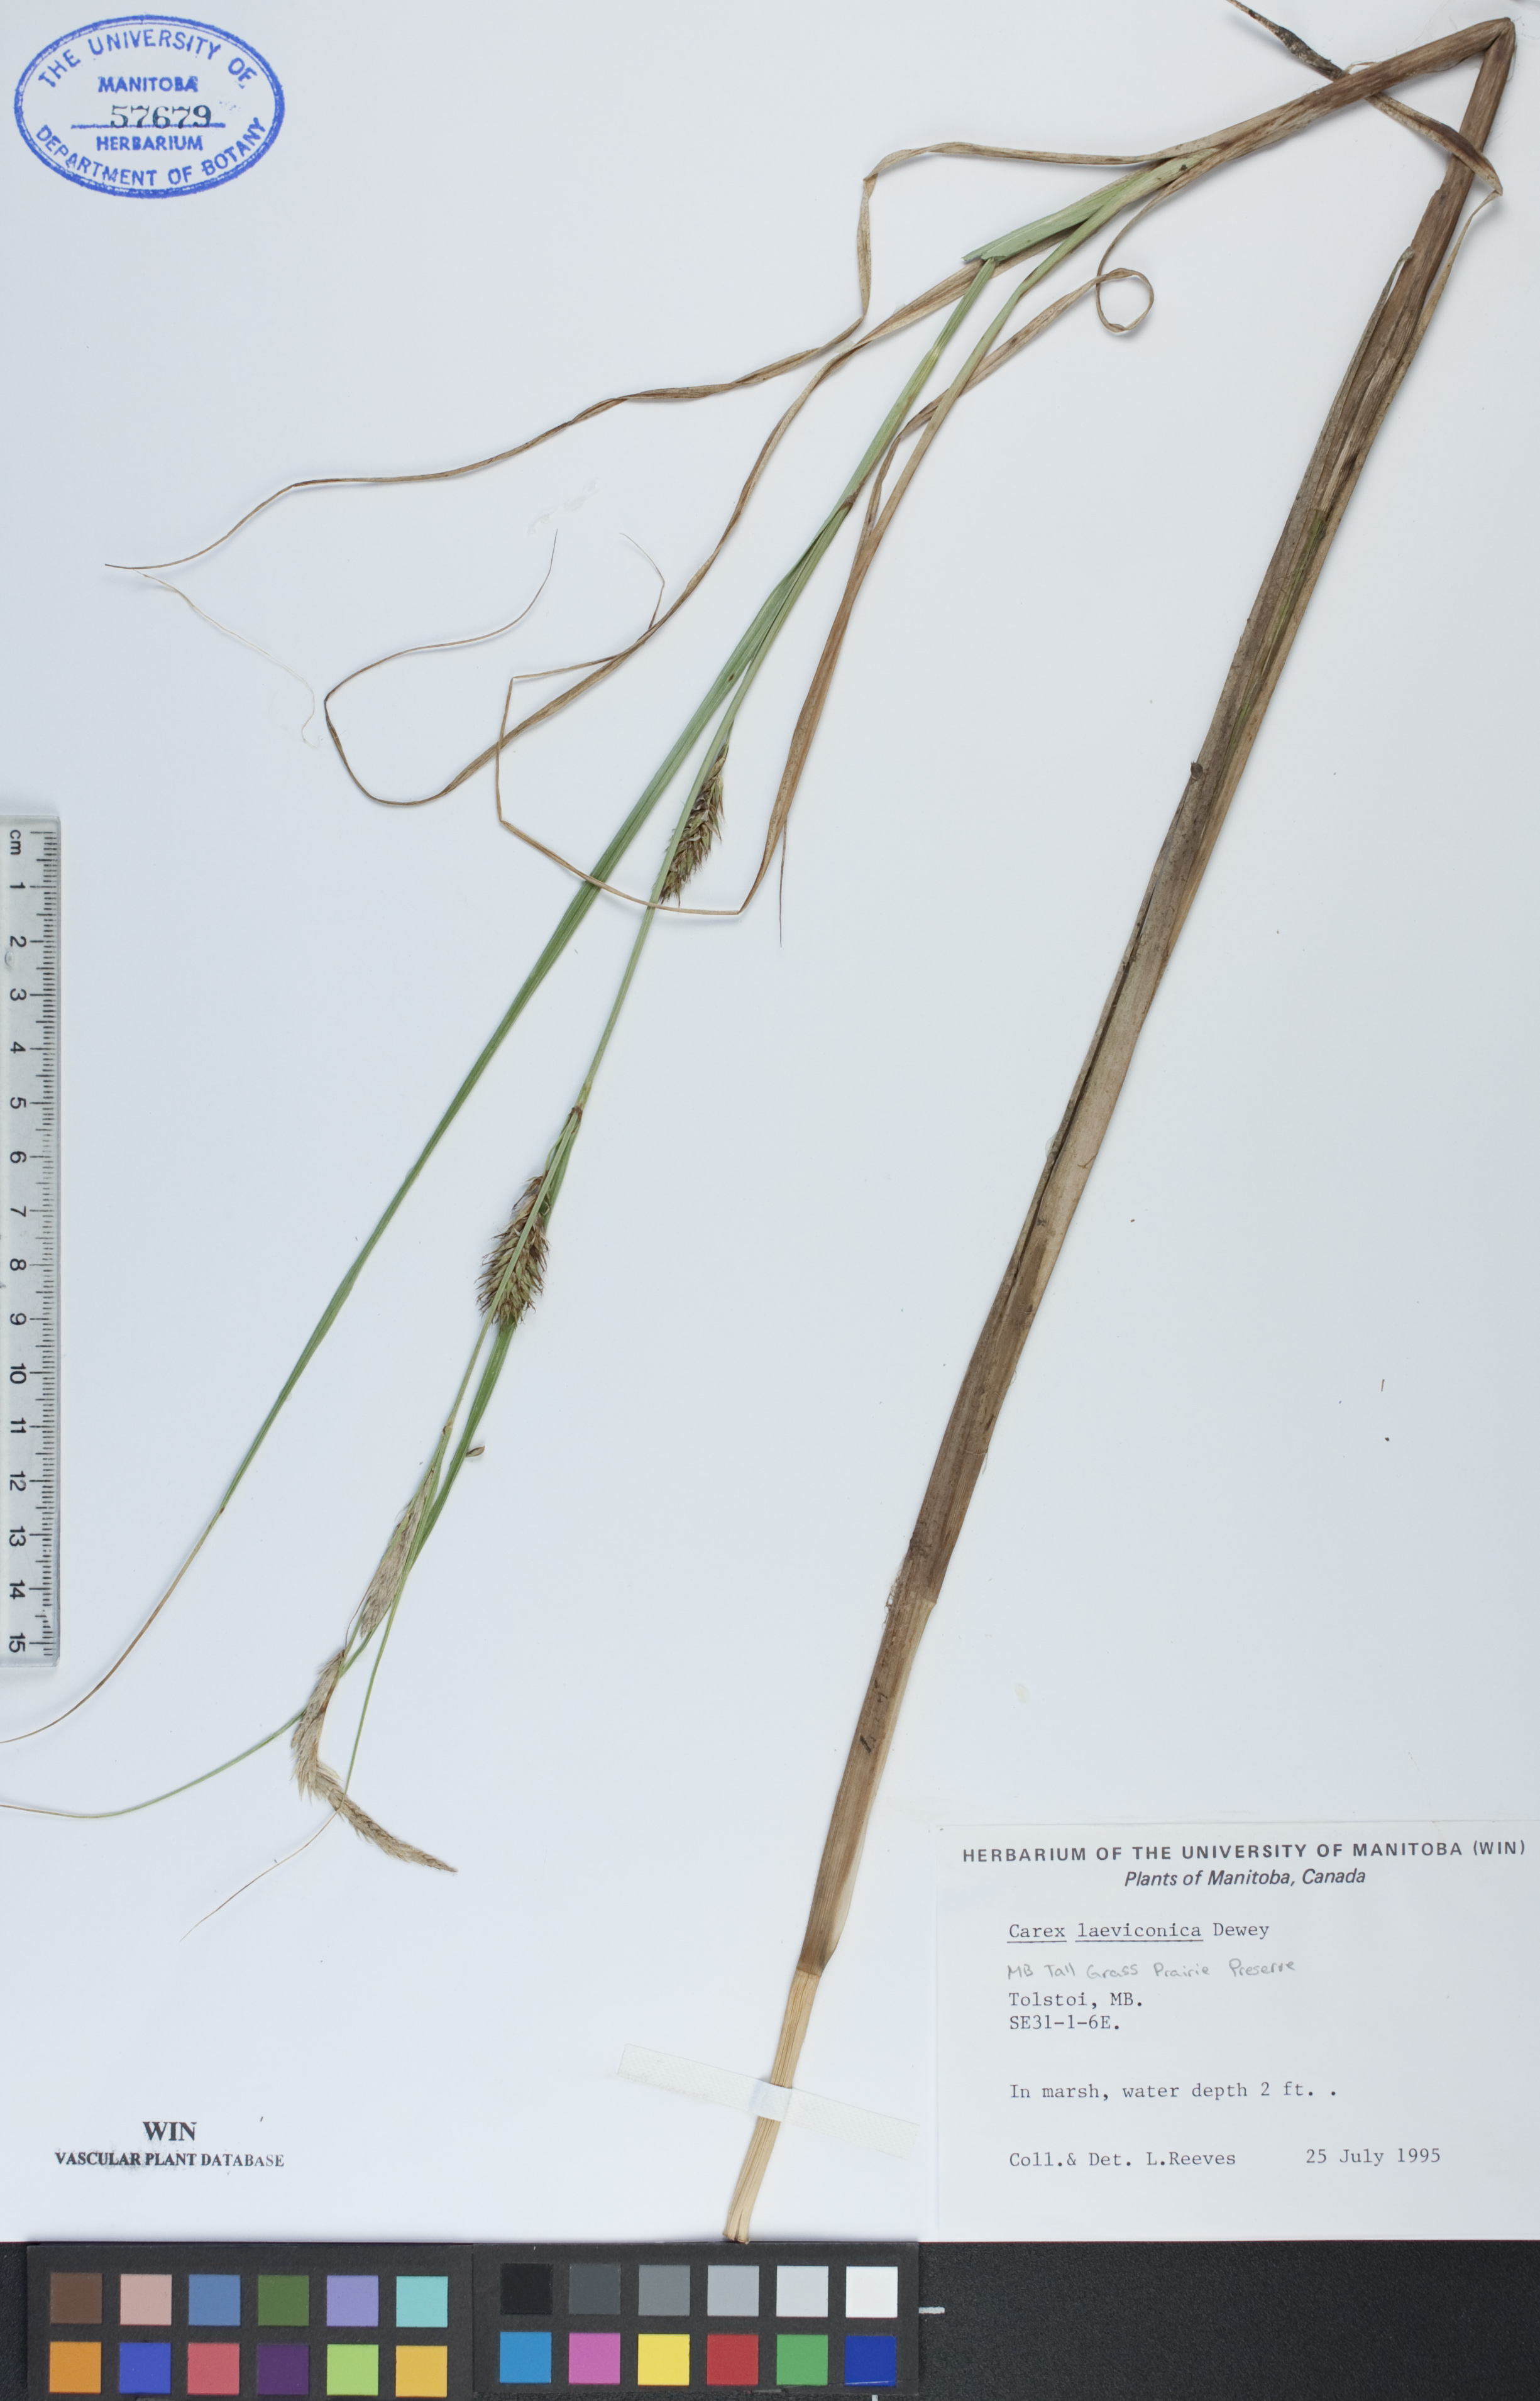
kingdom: Plantae
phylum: Tracheophyta
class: Liliopsida
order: Poales
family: Cyperaceae
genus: Carex
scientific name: Carex laeviconica
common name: Plains slough sedge
